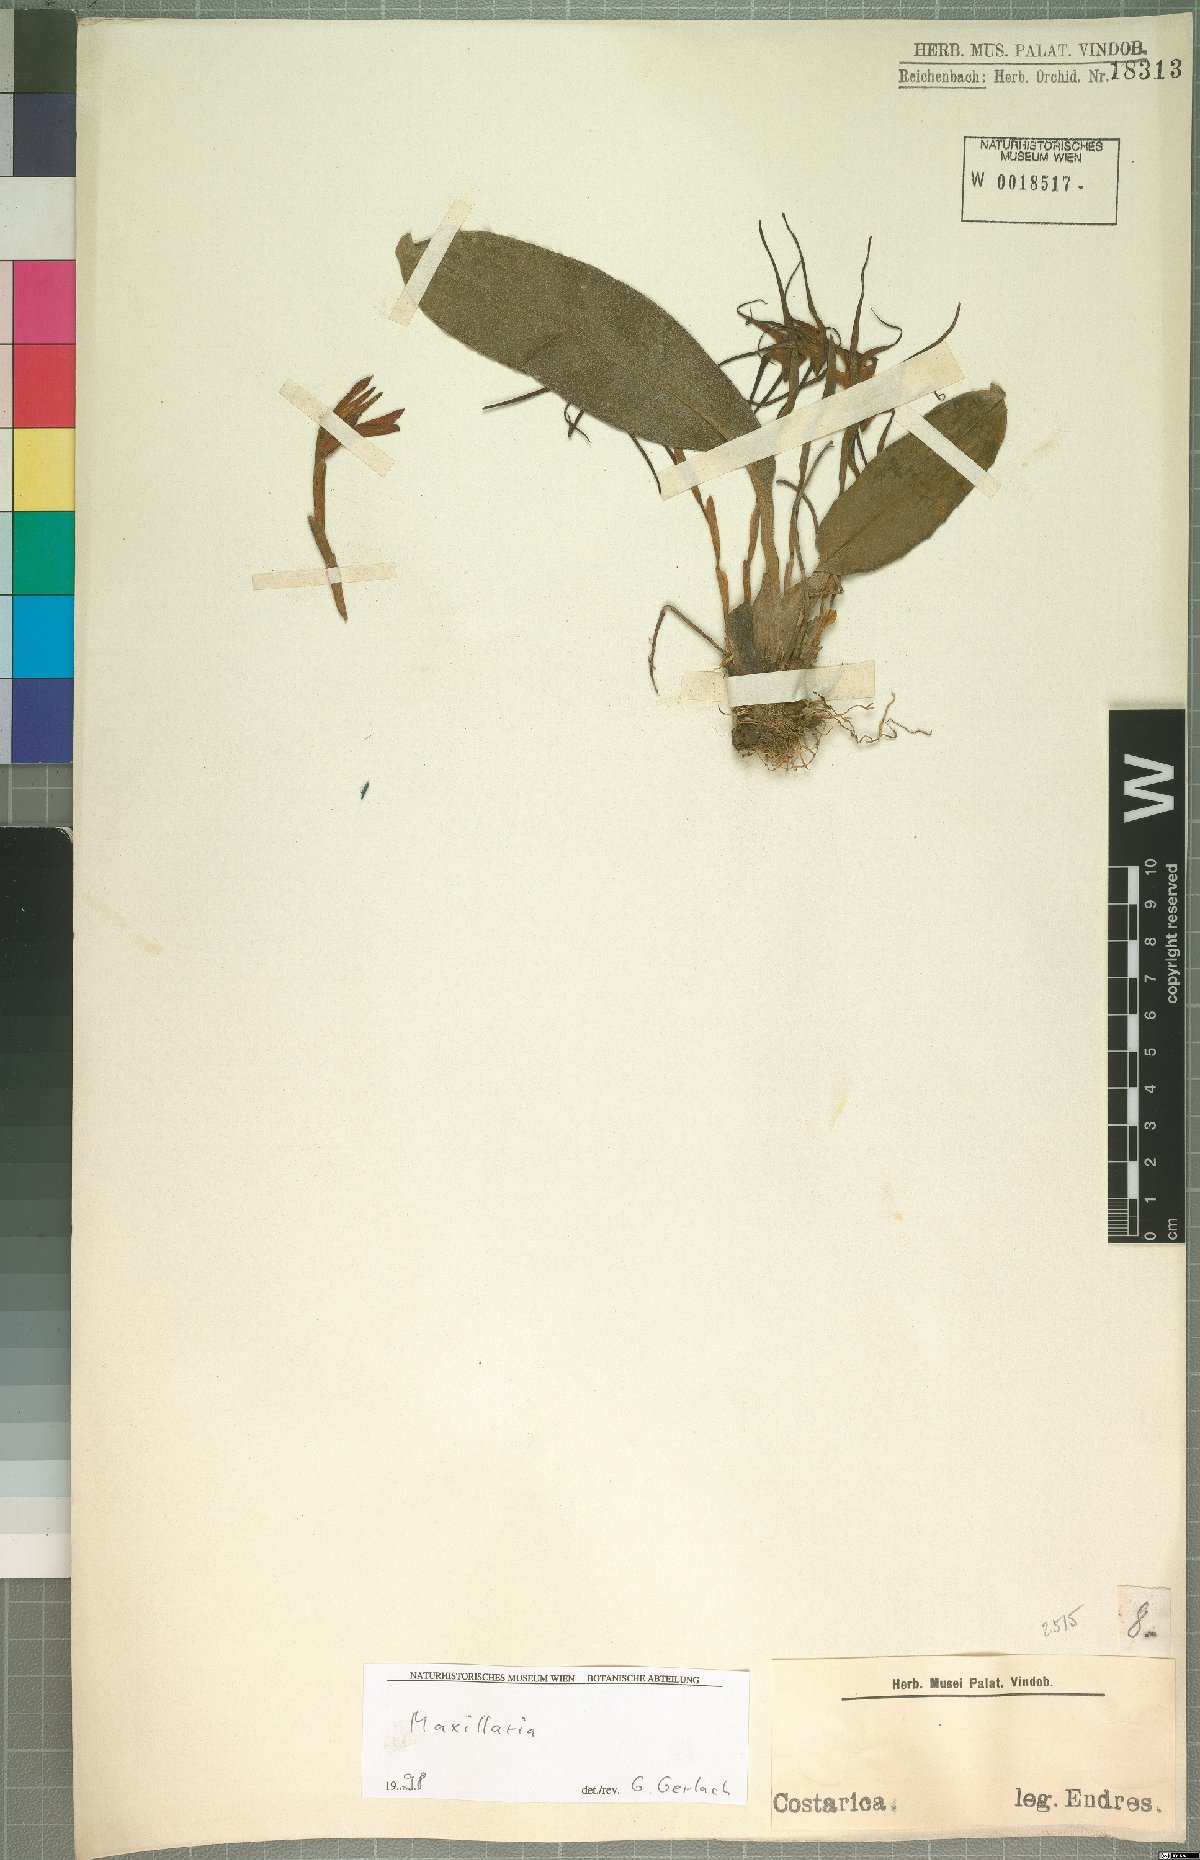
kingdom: Plantae
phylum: Tracheophyta
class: Liliopsida
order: Asparagales
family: Orchidaceae
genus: Maxillaria
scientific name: Maxillaria
